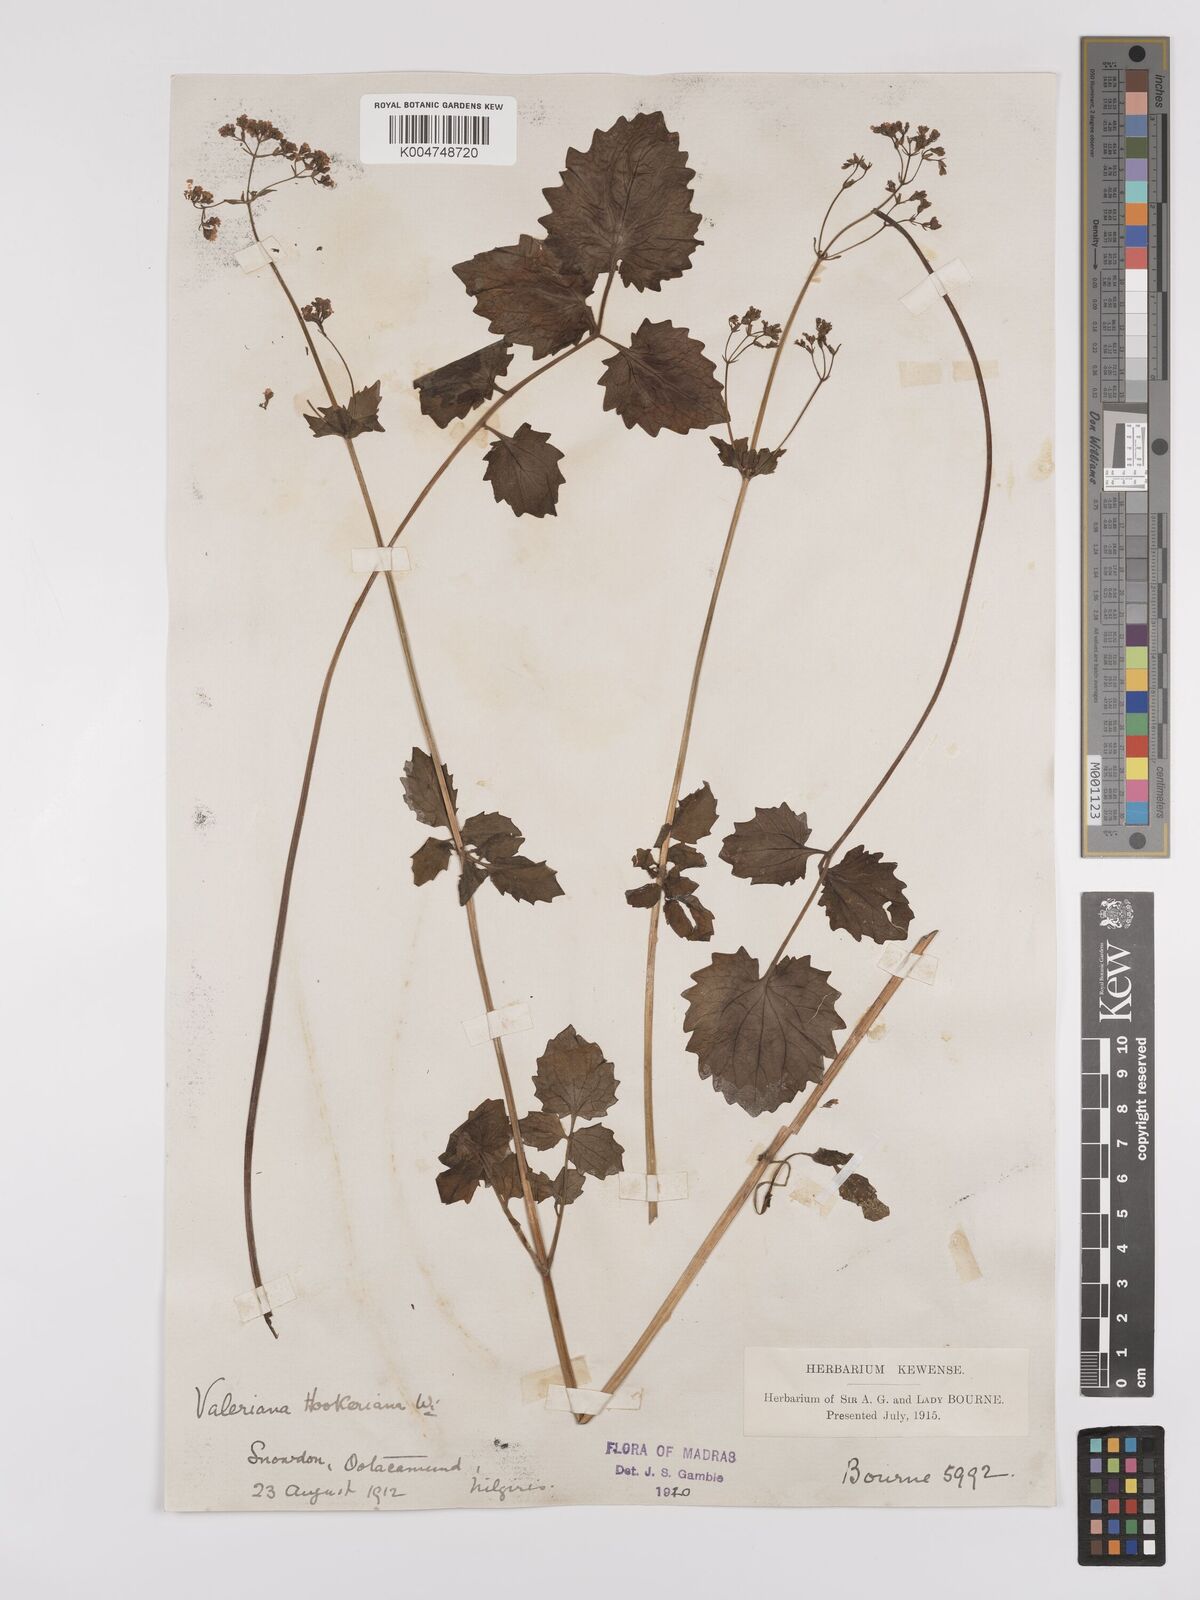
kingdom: Plantae
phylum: Tracheophyta
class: Magnoliopsida
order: Dipsacales
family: Caprifoliaceae
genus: Valeriana
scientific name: Valeriana hardwickei
